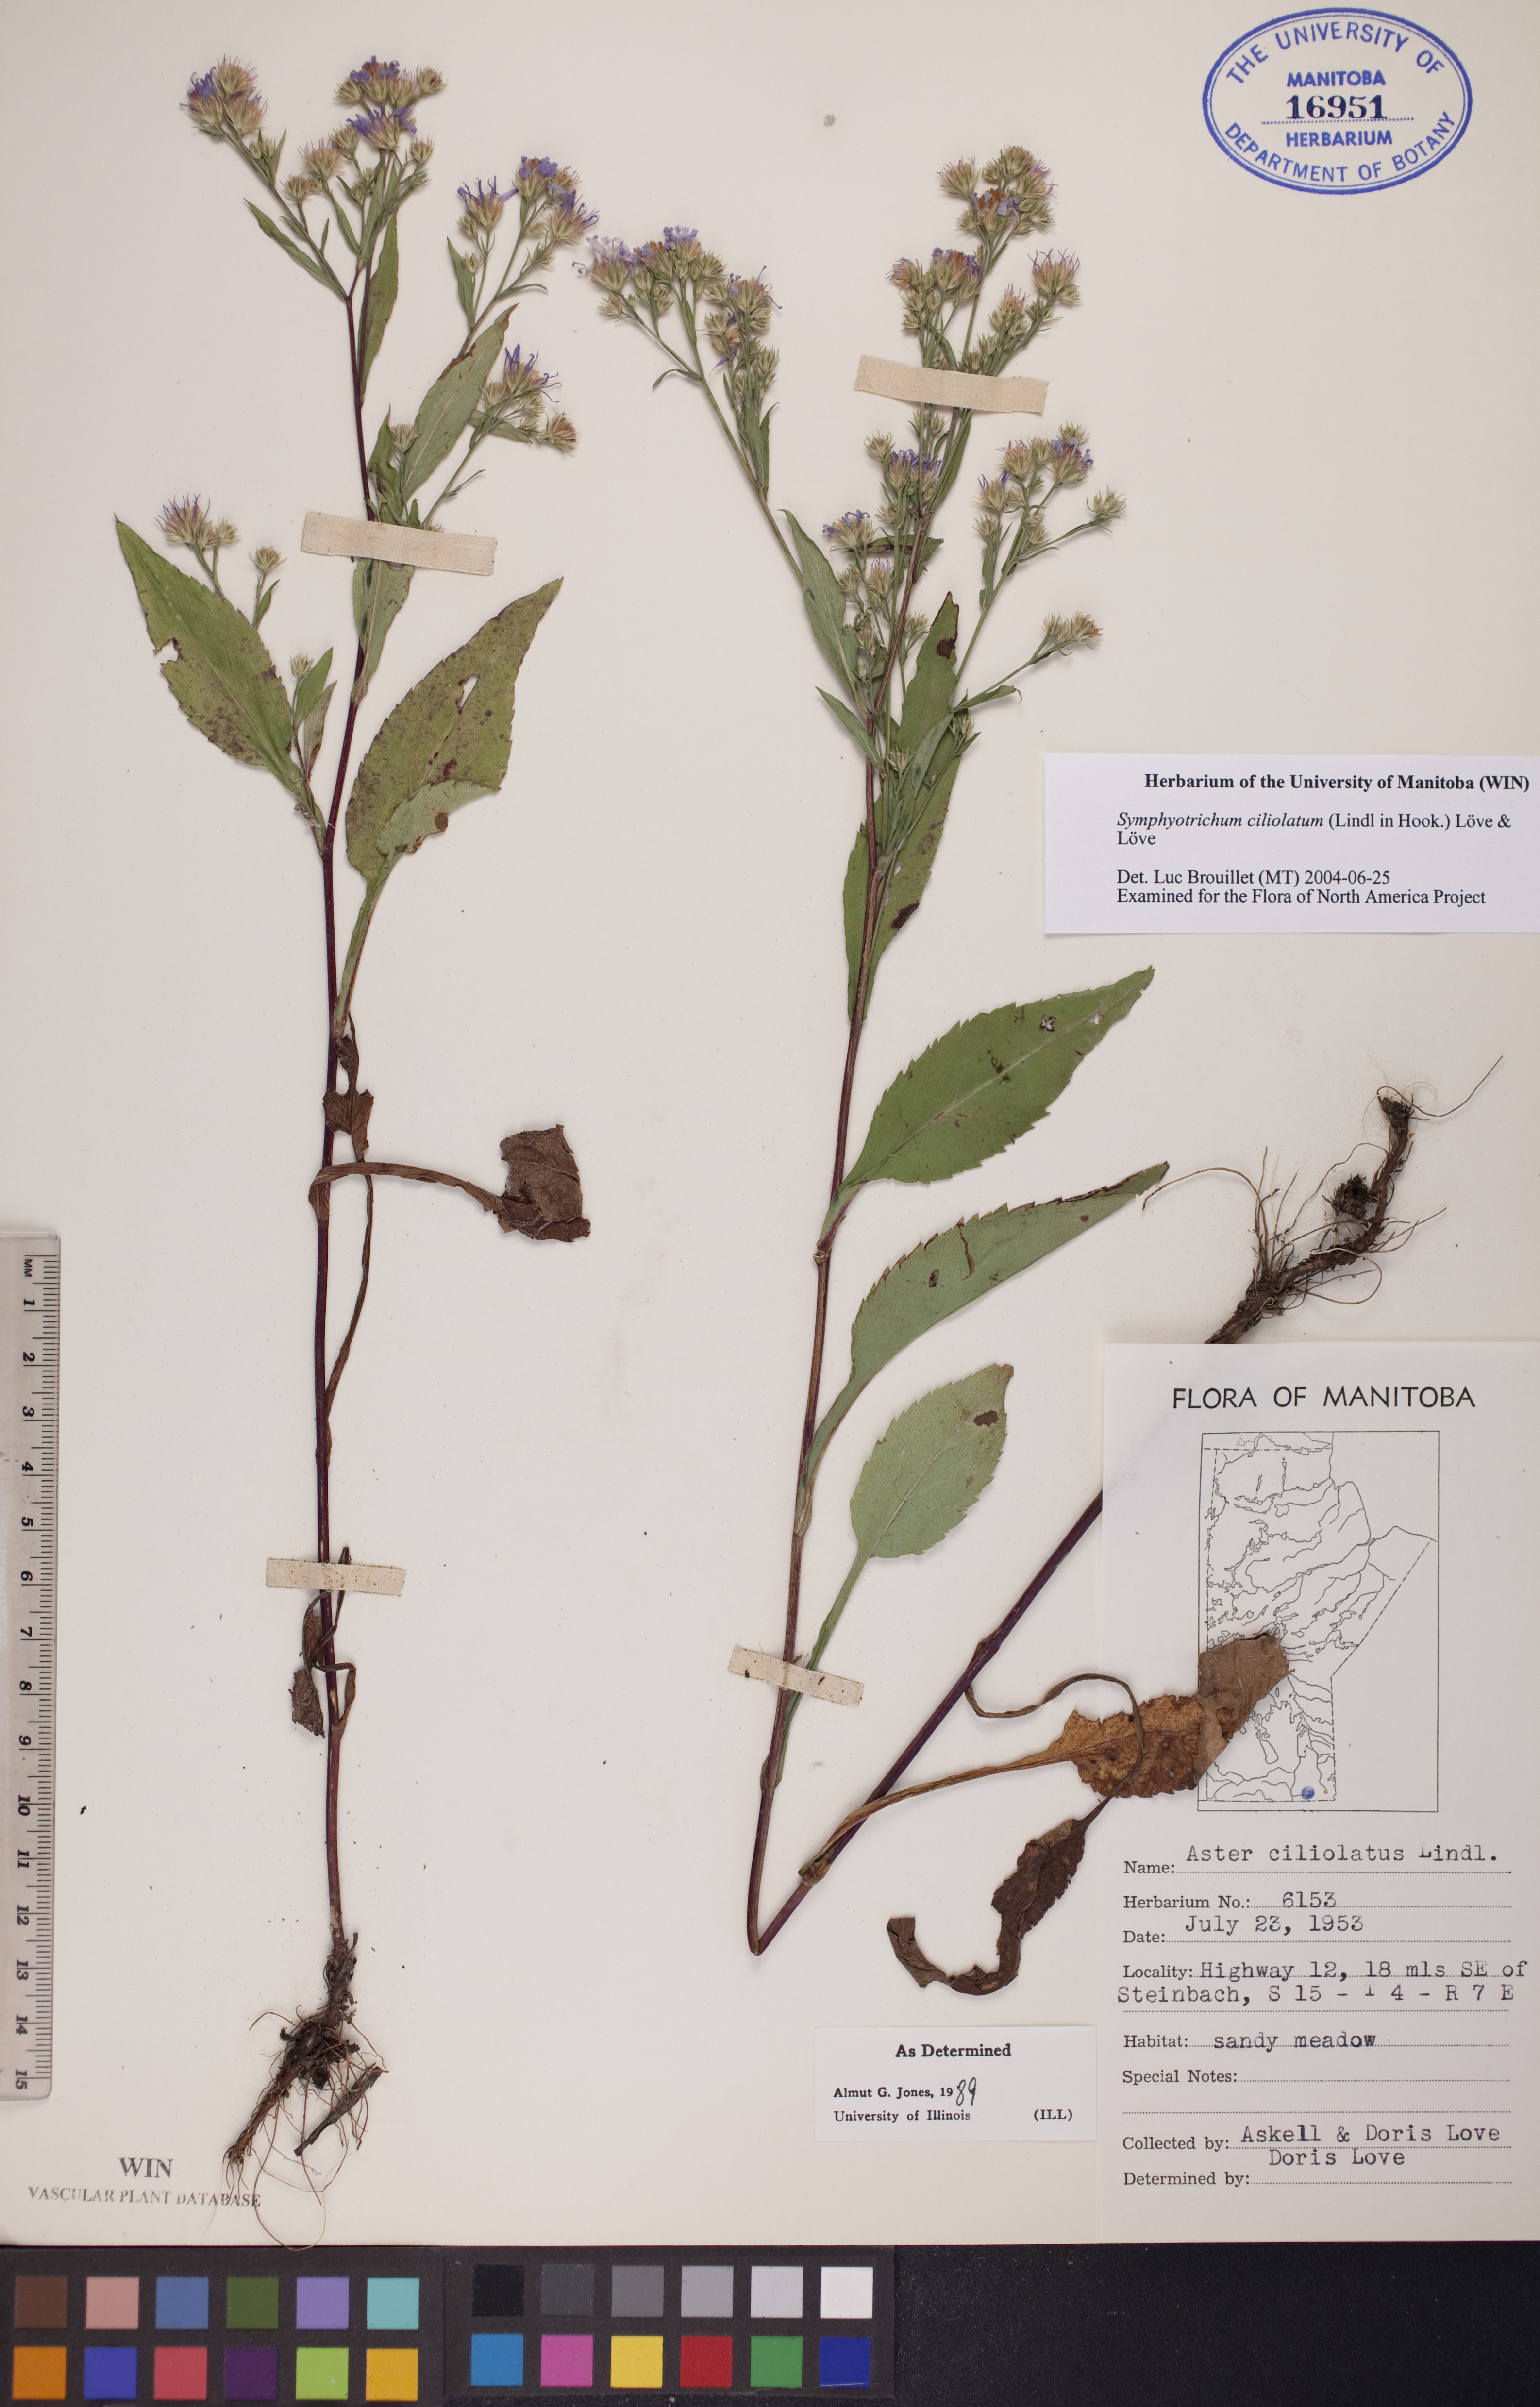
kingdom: Plantae
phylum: Tracheophyta
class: Magnoliopsida
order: Asterales
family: Asteraceae
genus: Symphyotrichum
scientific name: Symphyotrichum ciliolatum
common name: Fringed blue aster
